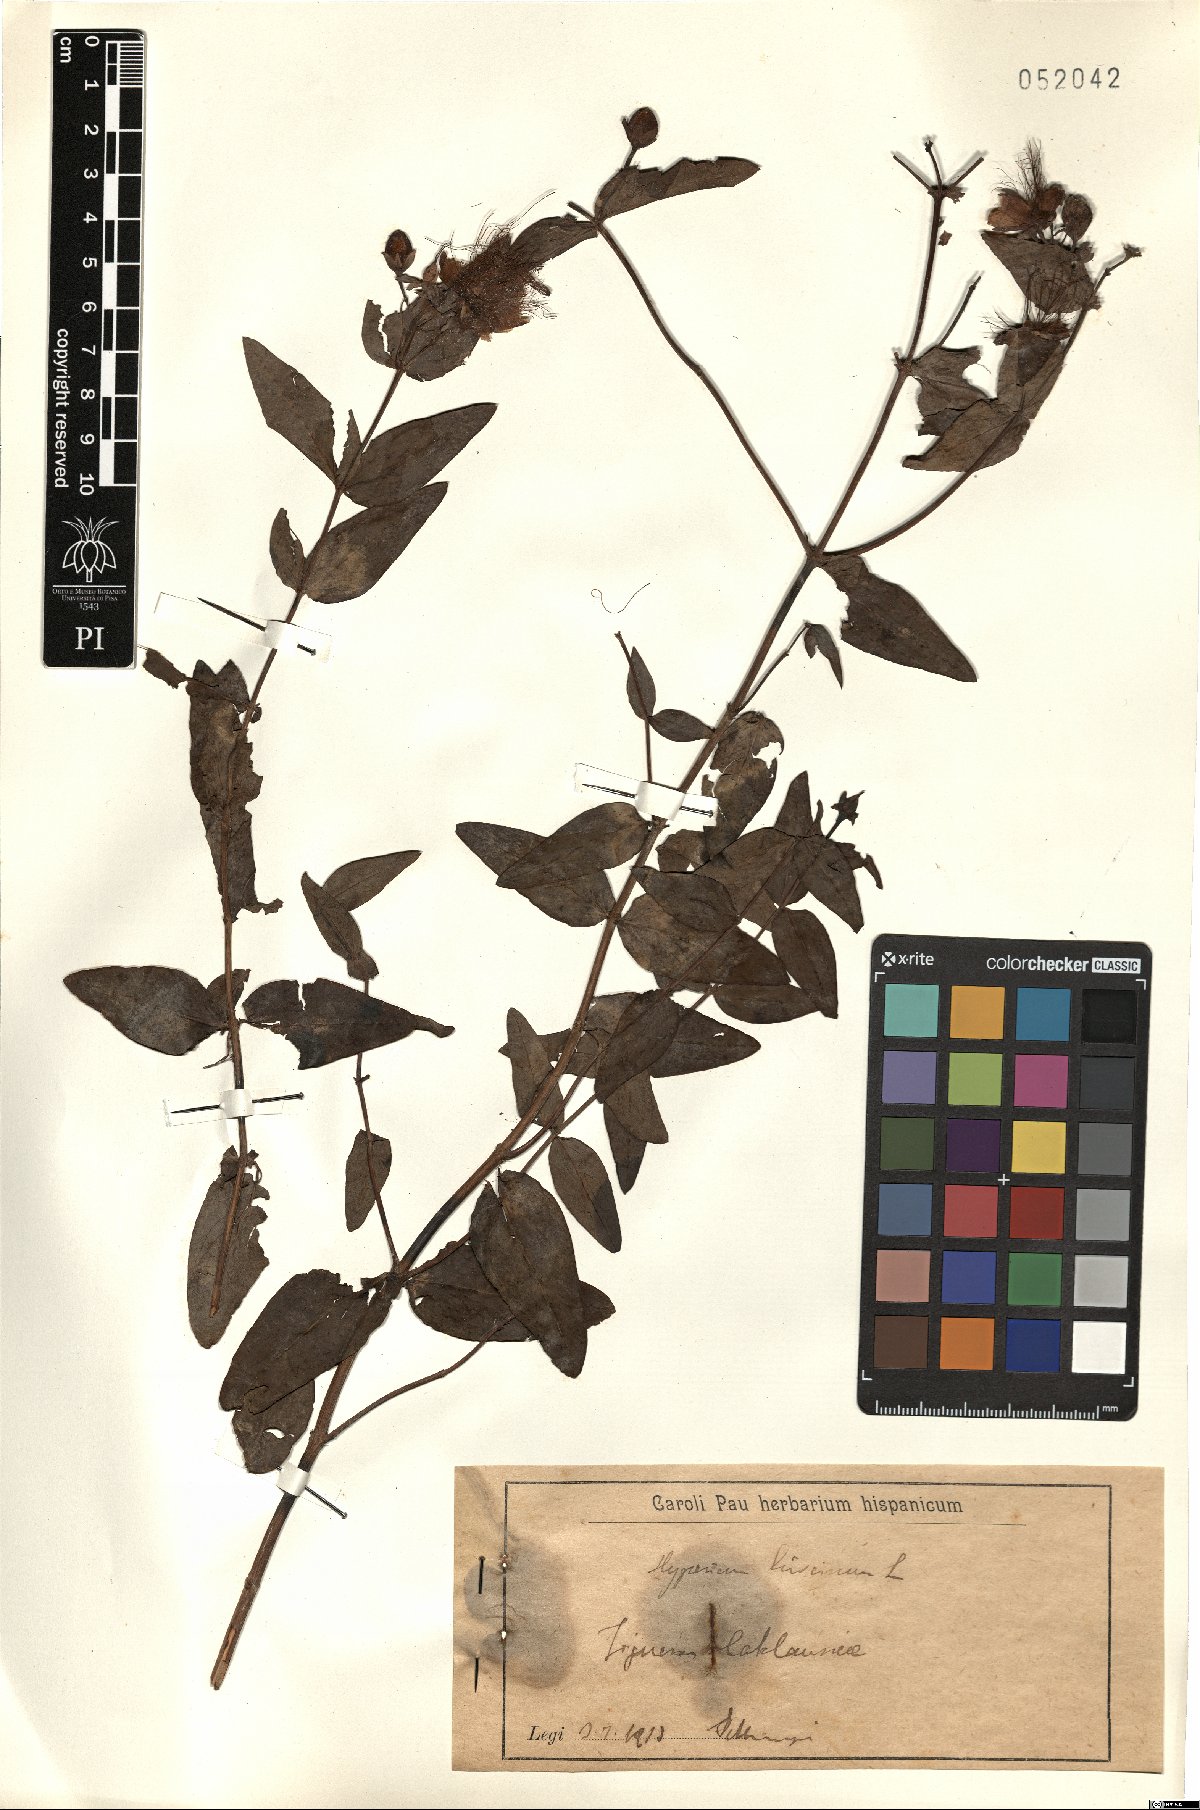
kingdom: Plantae
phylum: Tracheophyta
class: Magnoliopsida
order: Malpighiales
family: Hypericaceae
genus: Hypericum
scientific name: Hypericum hircinum
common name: Stinking tutsan
